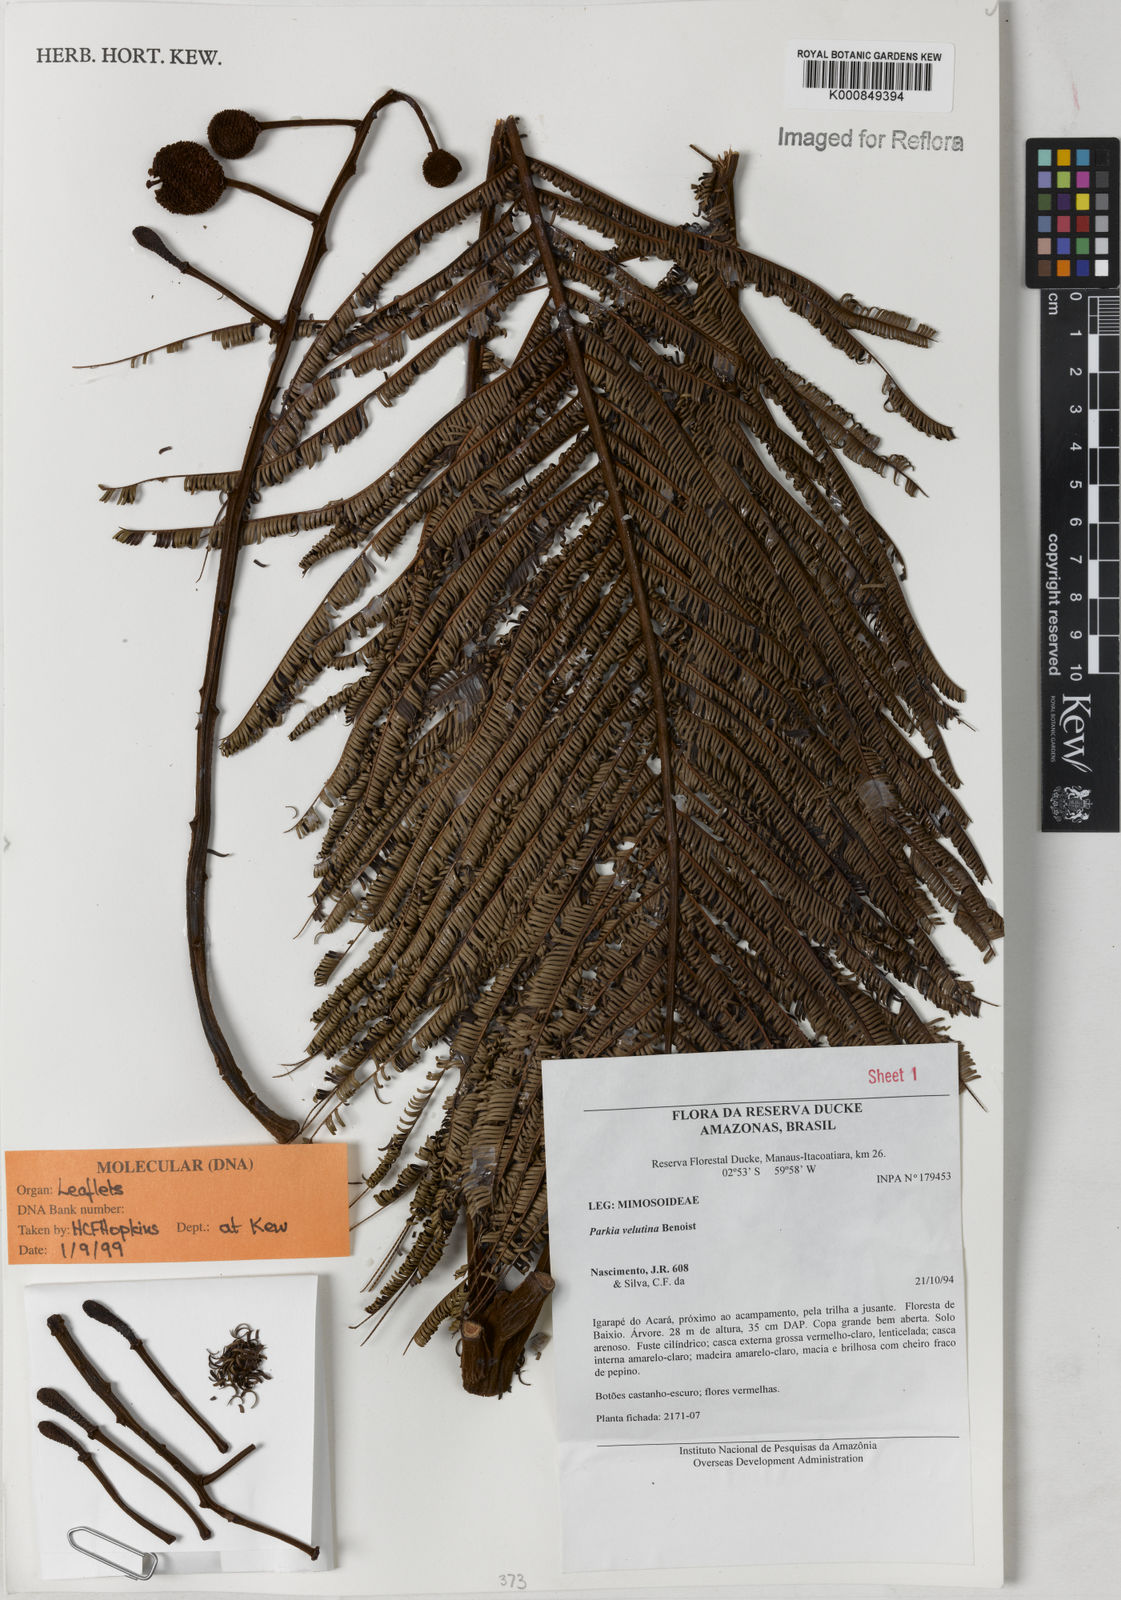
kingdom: Plantae
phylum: Tracheophyta
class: Magnoliopsida
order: Fabales
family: Fabaceae
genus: Parkia
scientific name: Parkia velutina
